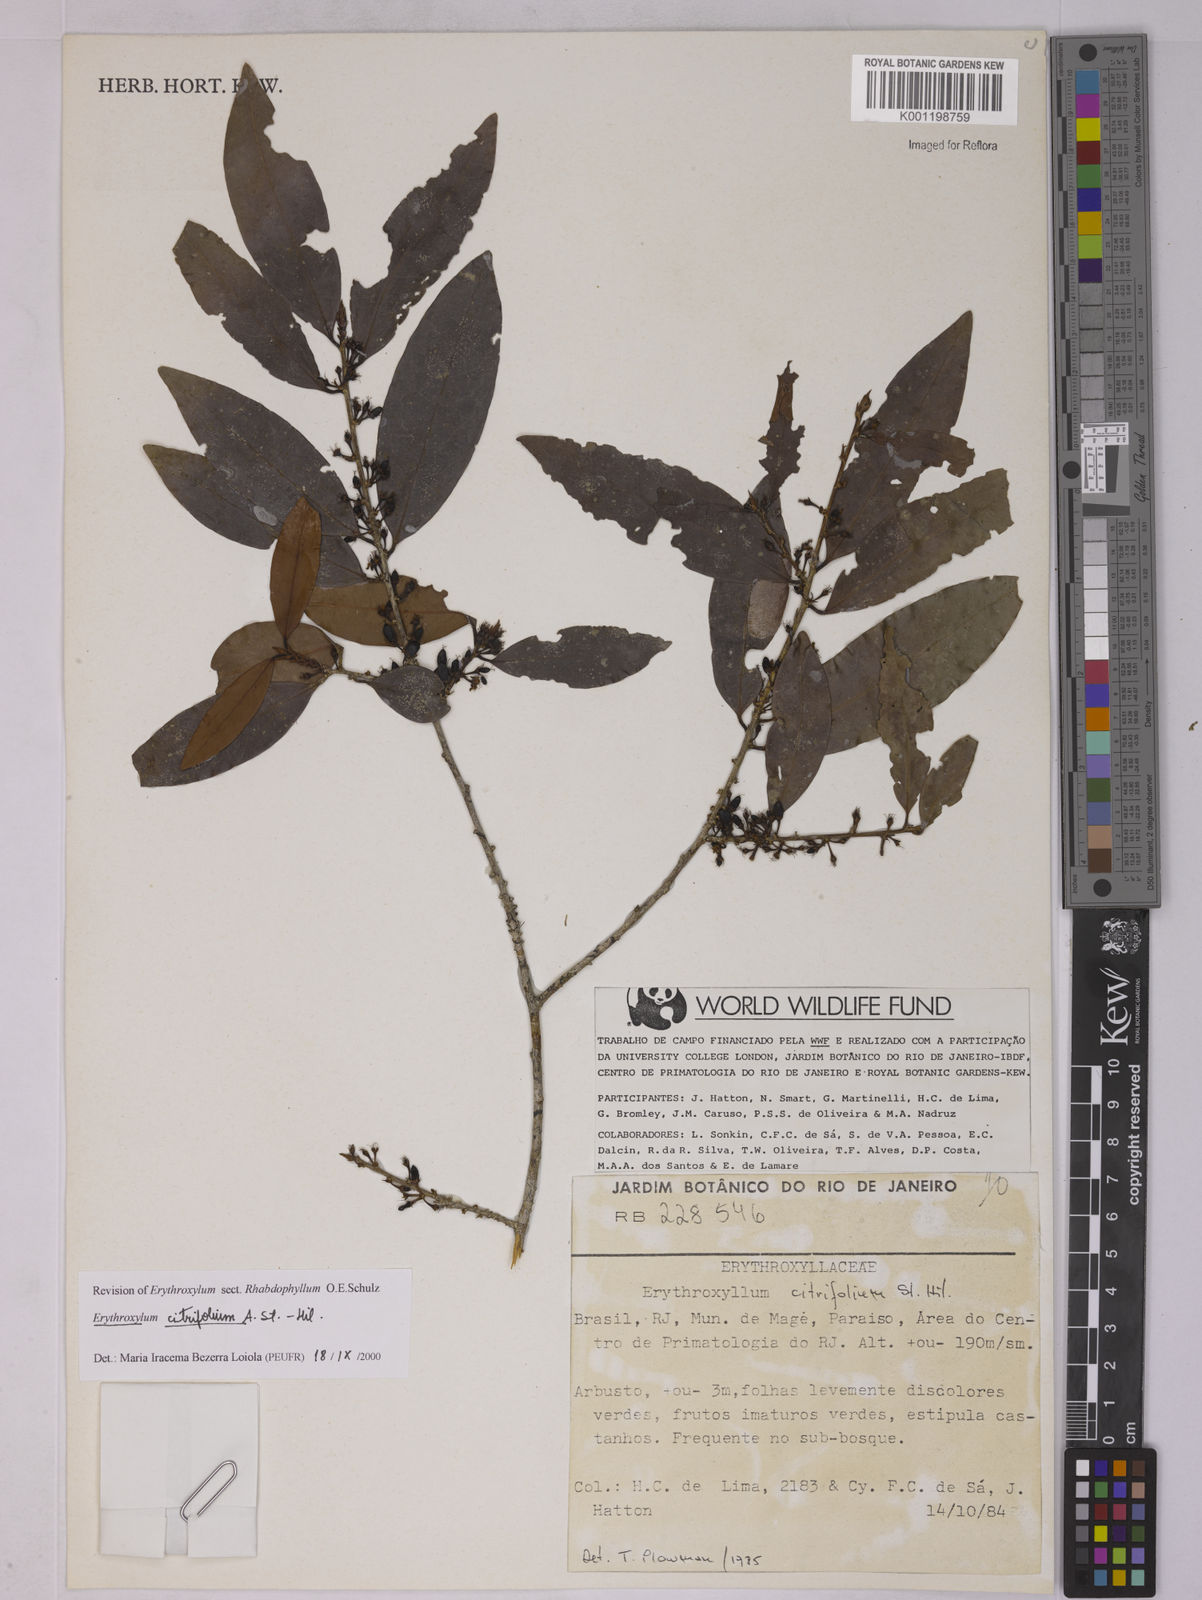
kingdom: Plantae
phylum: Tracheophyta
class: Magnoliopsida
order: Malpighiales
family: Erythroxylaceae
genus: Erythroxylum
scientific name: Erythroxylum citrifolium
